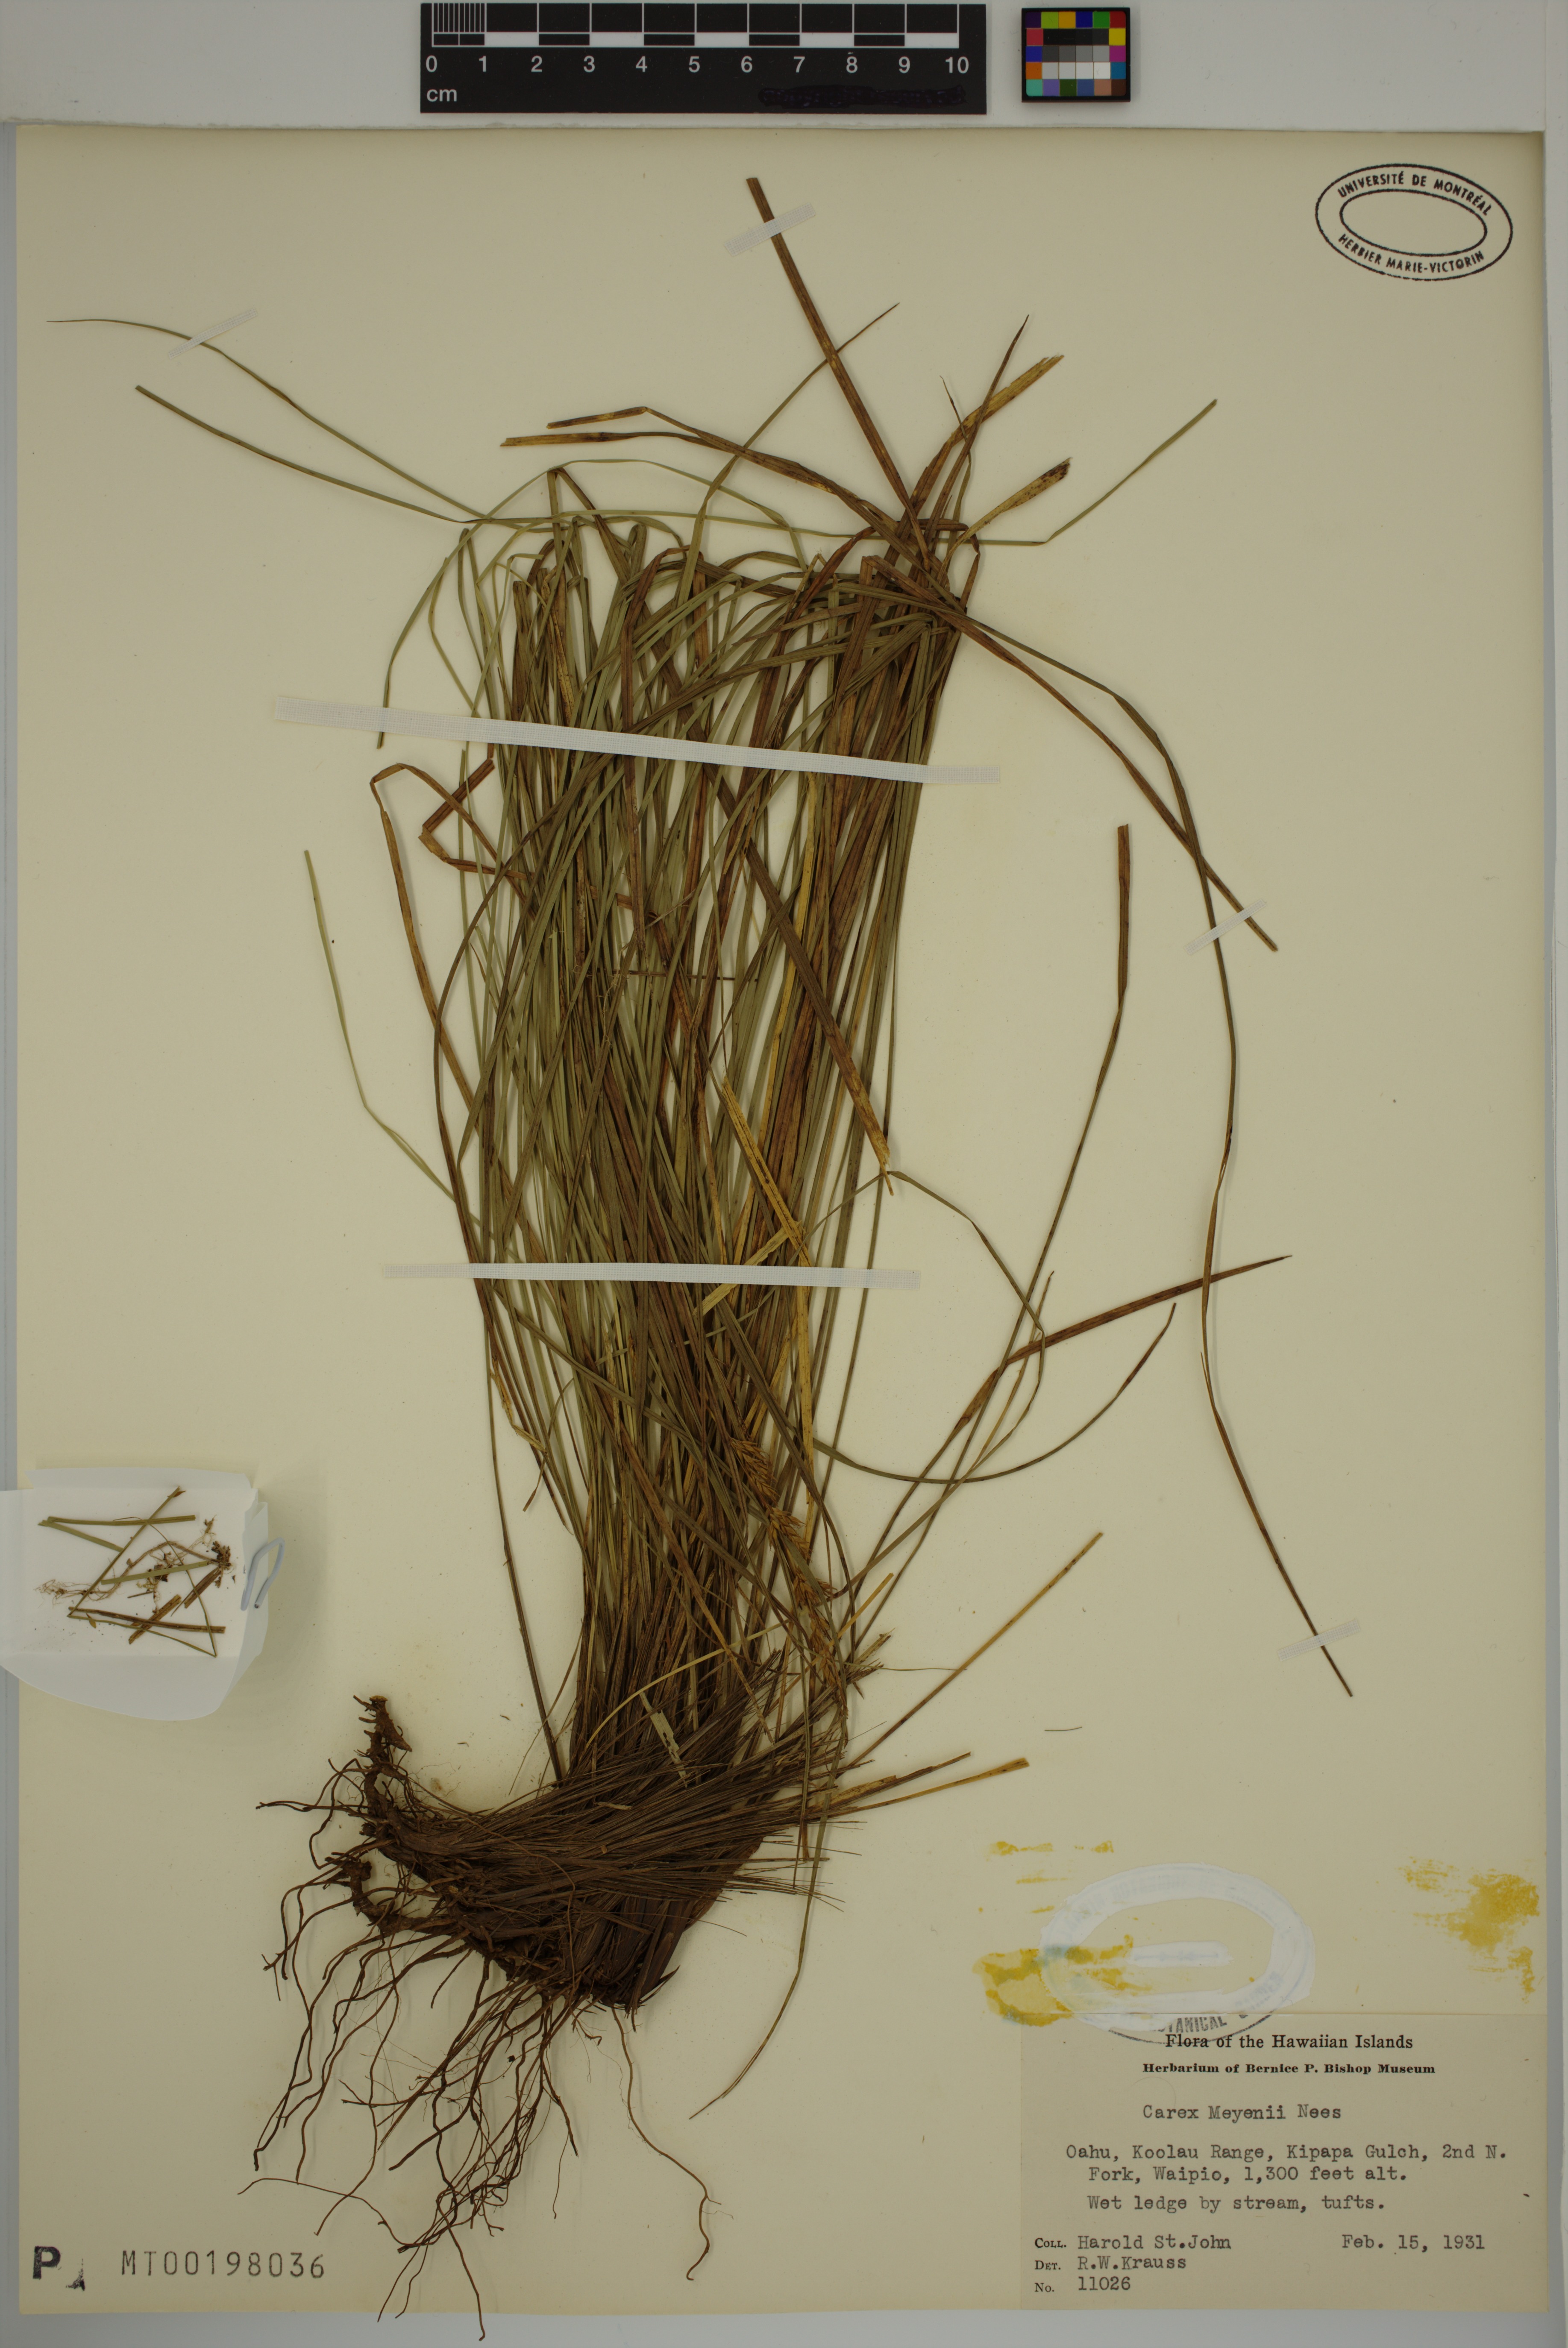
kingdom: Plantae
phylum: Tracheophyta
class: Liliopsida
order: Poales
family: Cyperaceae
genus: Carex
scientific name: Carex meyenii
